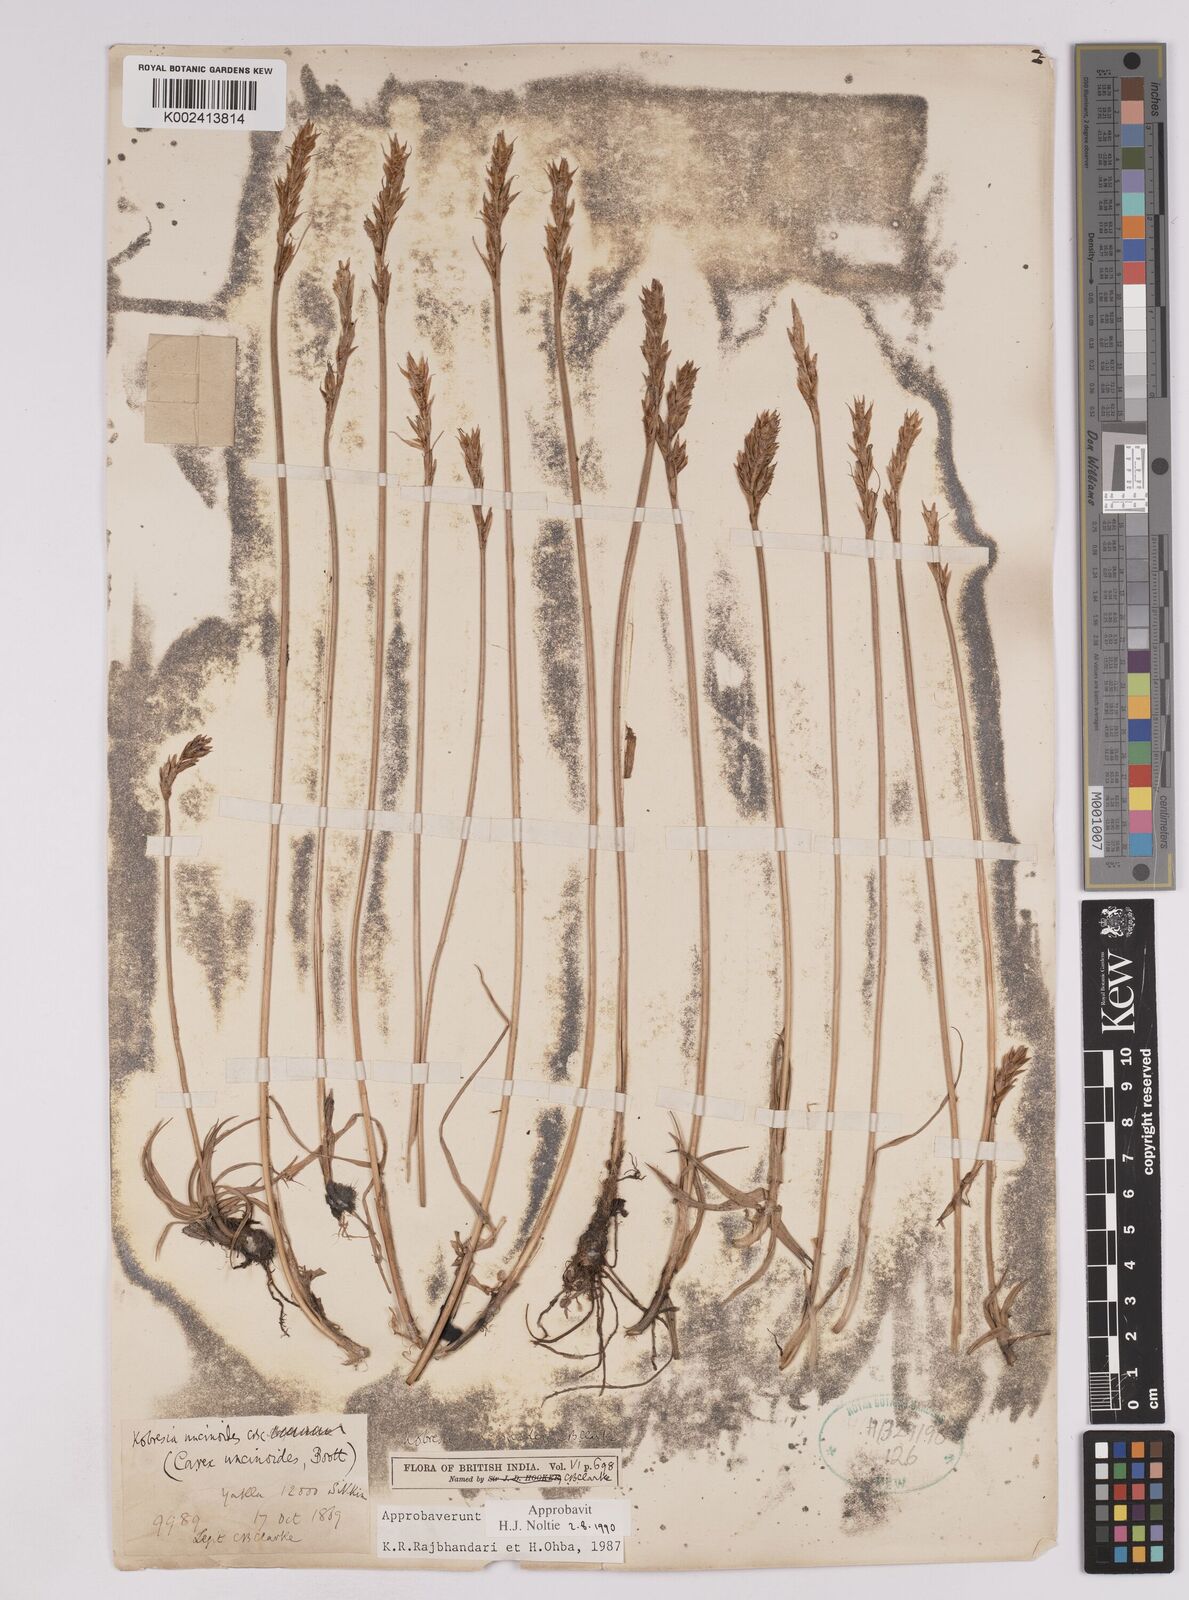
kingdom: Plantae
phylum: Tracheophyta
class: Liliopsida
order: Poales
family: Cyperaceae
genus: Carex
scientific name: Carex uncinioides
